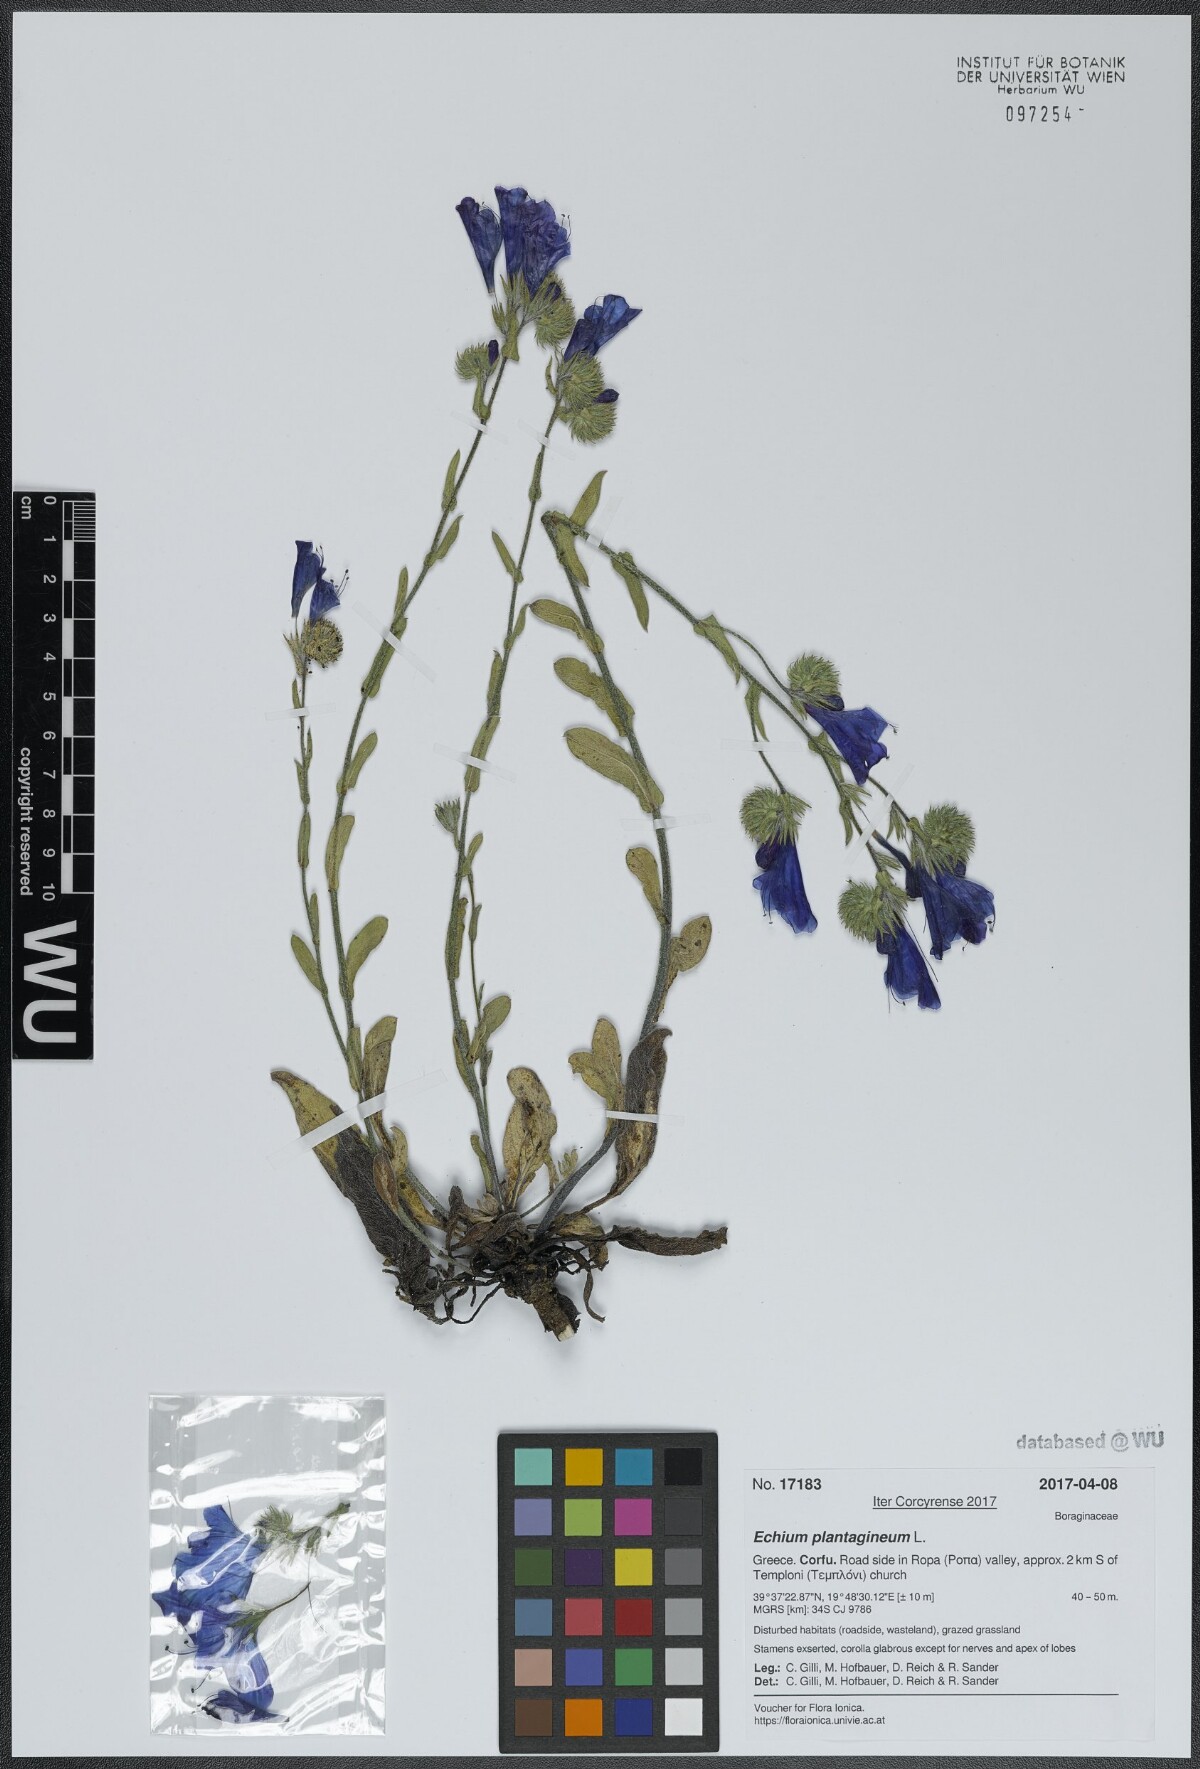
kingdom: Plantae
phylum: Tracheophyta
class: Magnoliopsida
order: Boraginales
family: Boraginaceae
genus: Echium
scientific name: Echium plantagineum
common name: Purple viper's-bugloss
